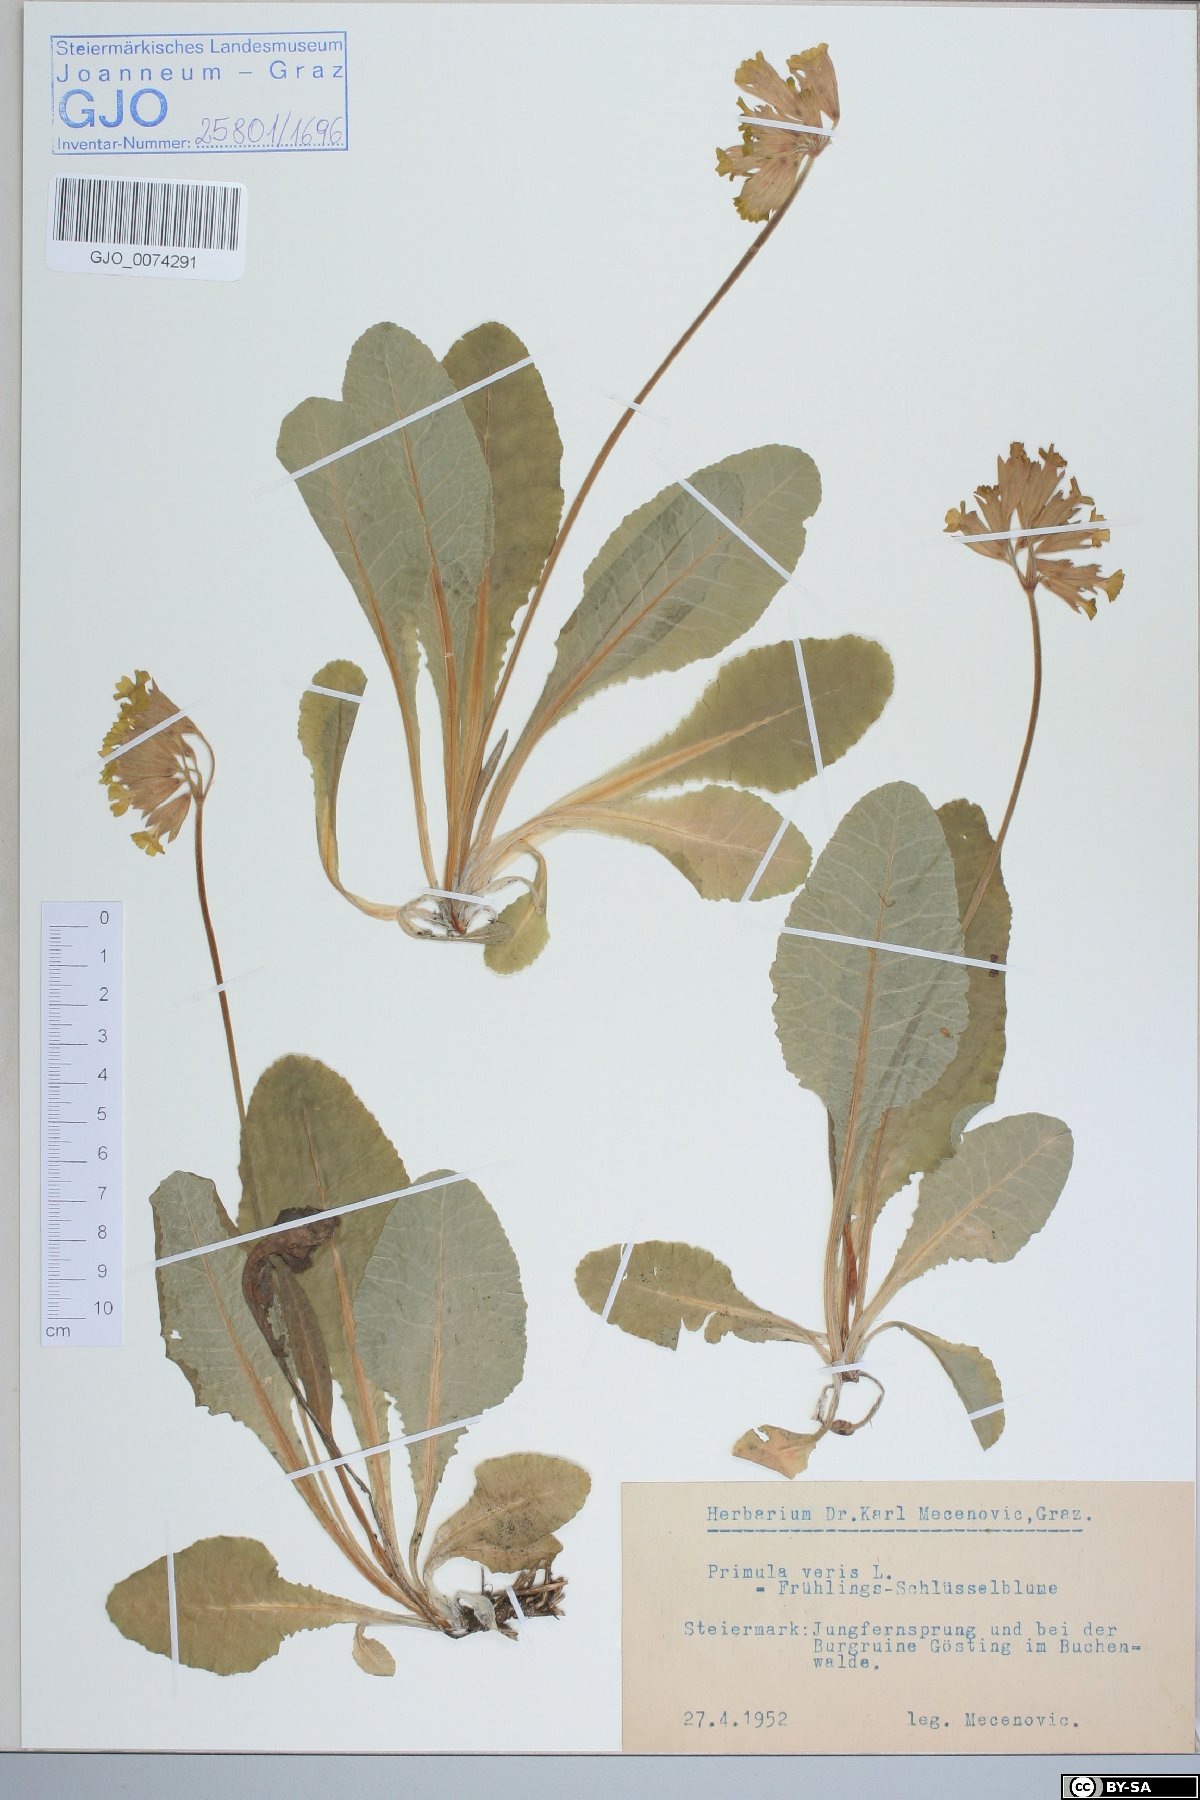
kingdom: Plantae
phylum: Tracheophyta
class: Magnoliopsida
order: Ericales
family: Primulaceae
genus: Primula
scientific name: Primula veris
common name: Cowslip
